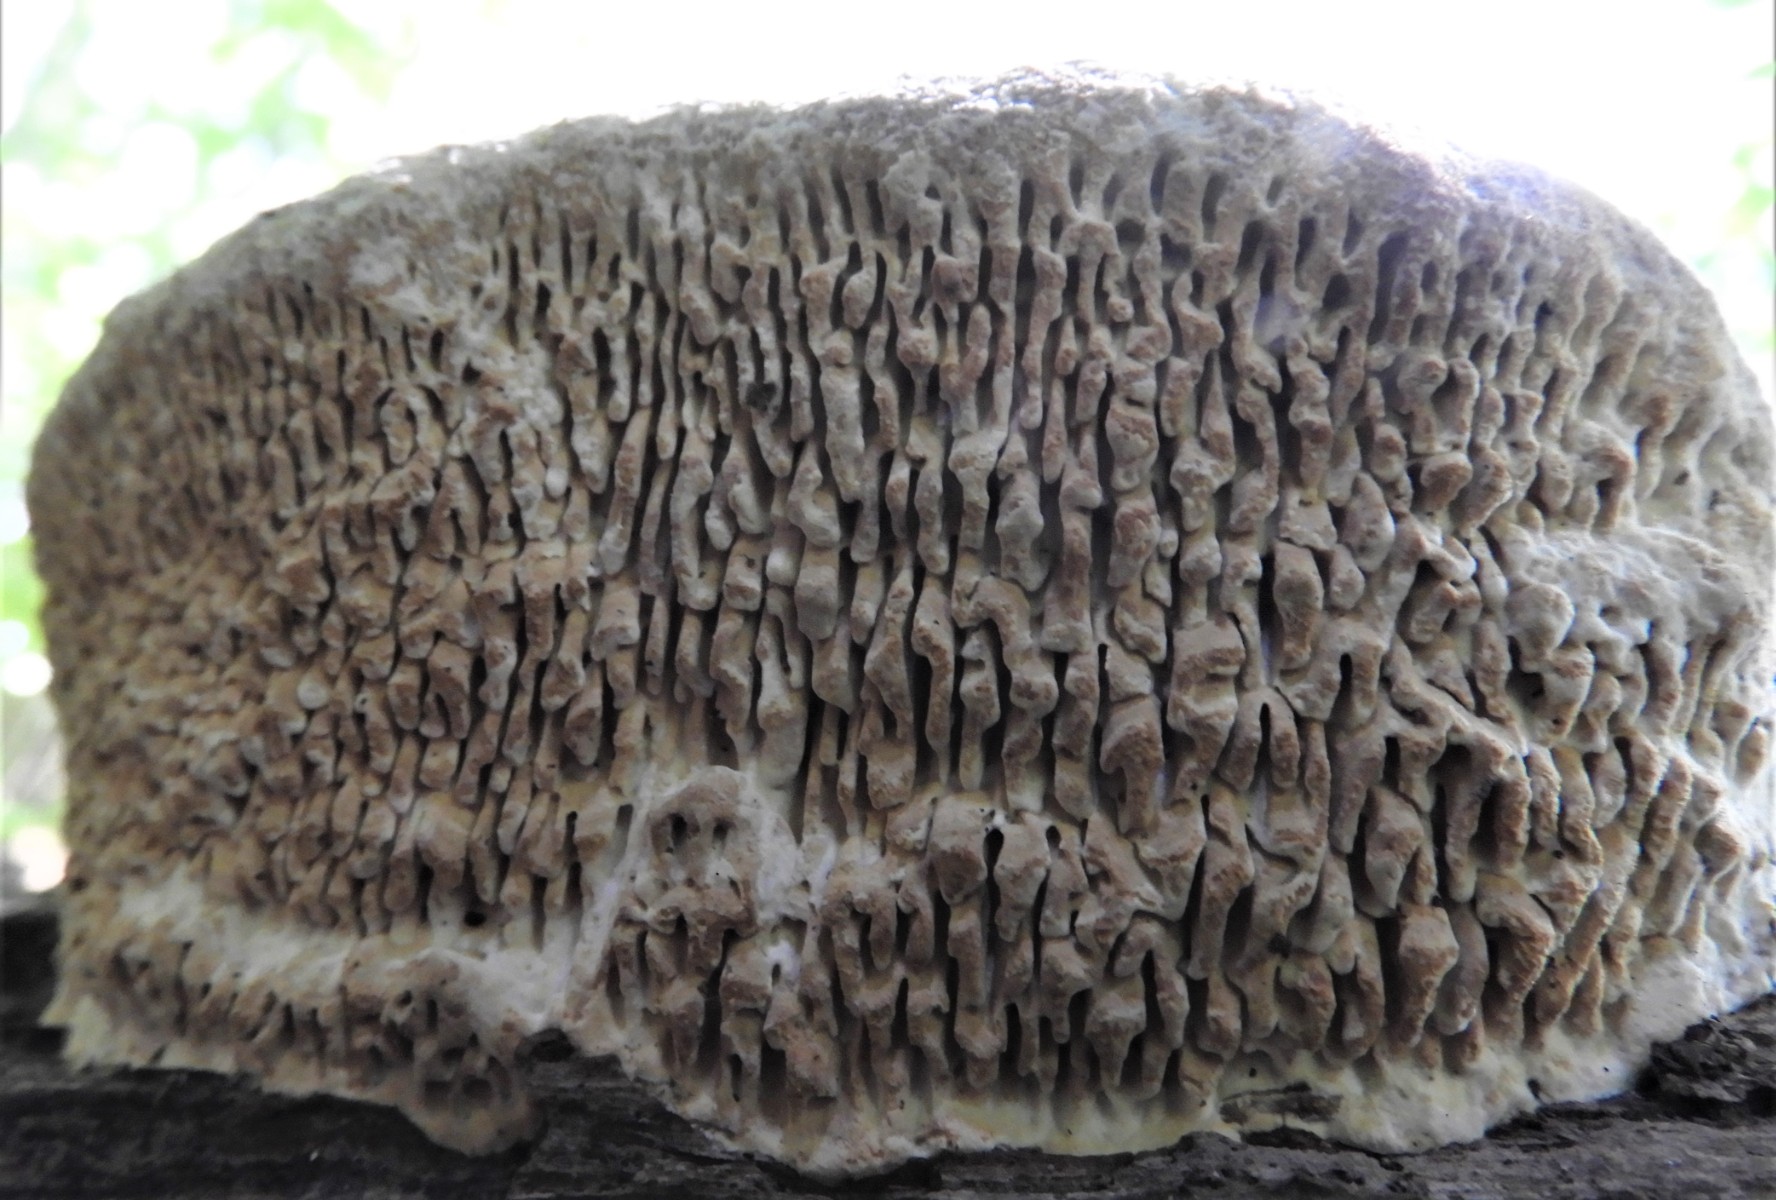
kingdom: Fungi
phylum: Basidiomycota
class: Agaricomycetes
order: Polyporales
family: Fomitopsidaceae
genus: Daedalea
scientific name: Daedalea quercina
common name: ege-labyrintsvamp
